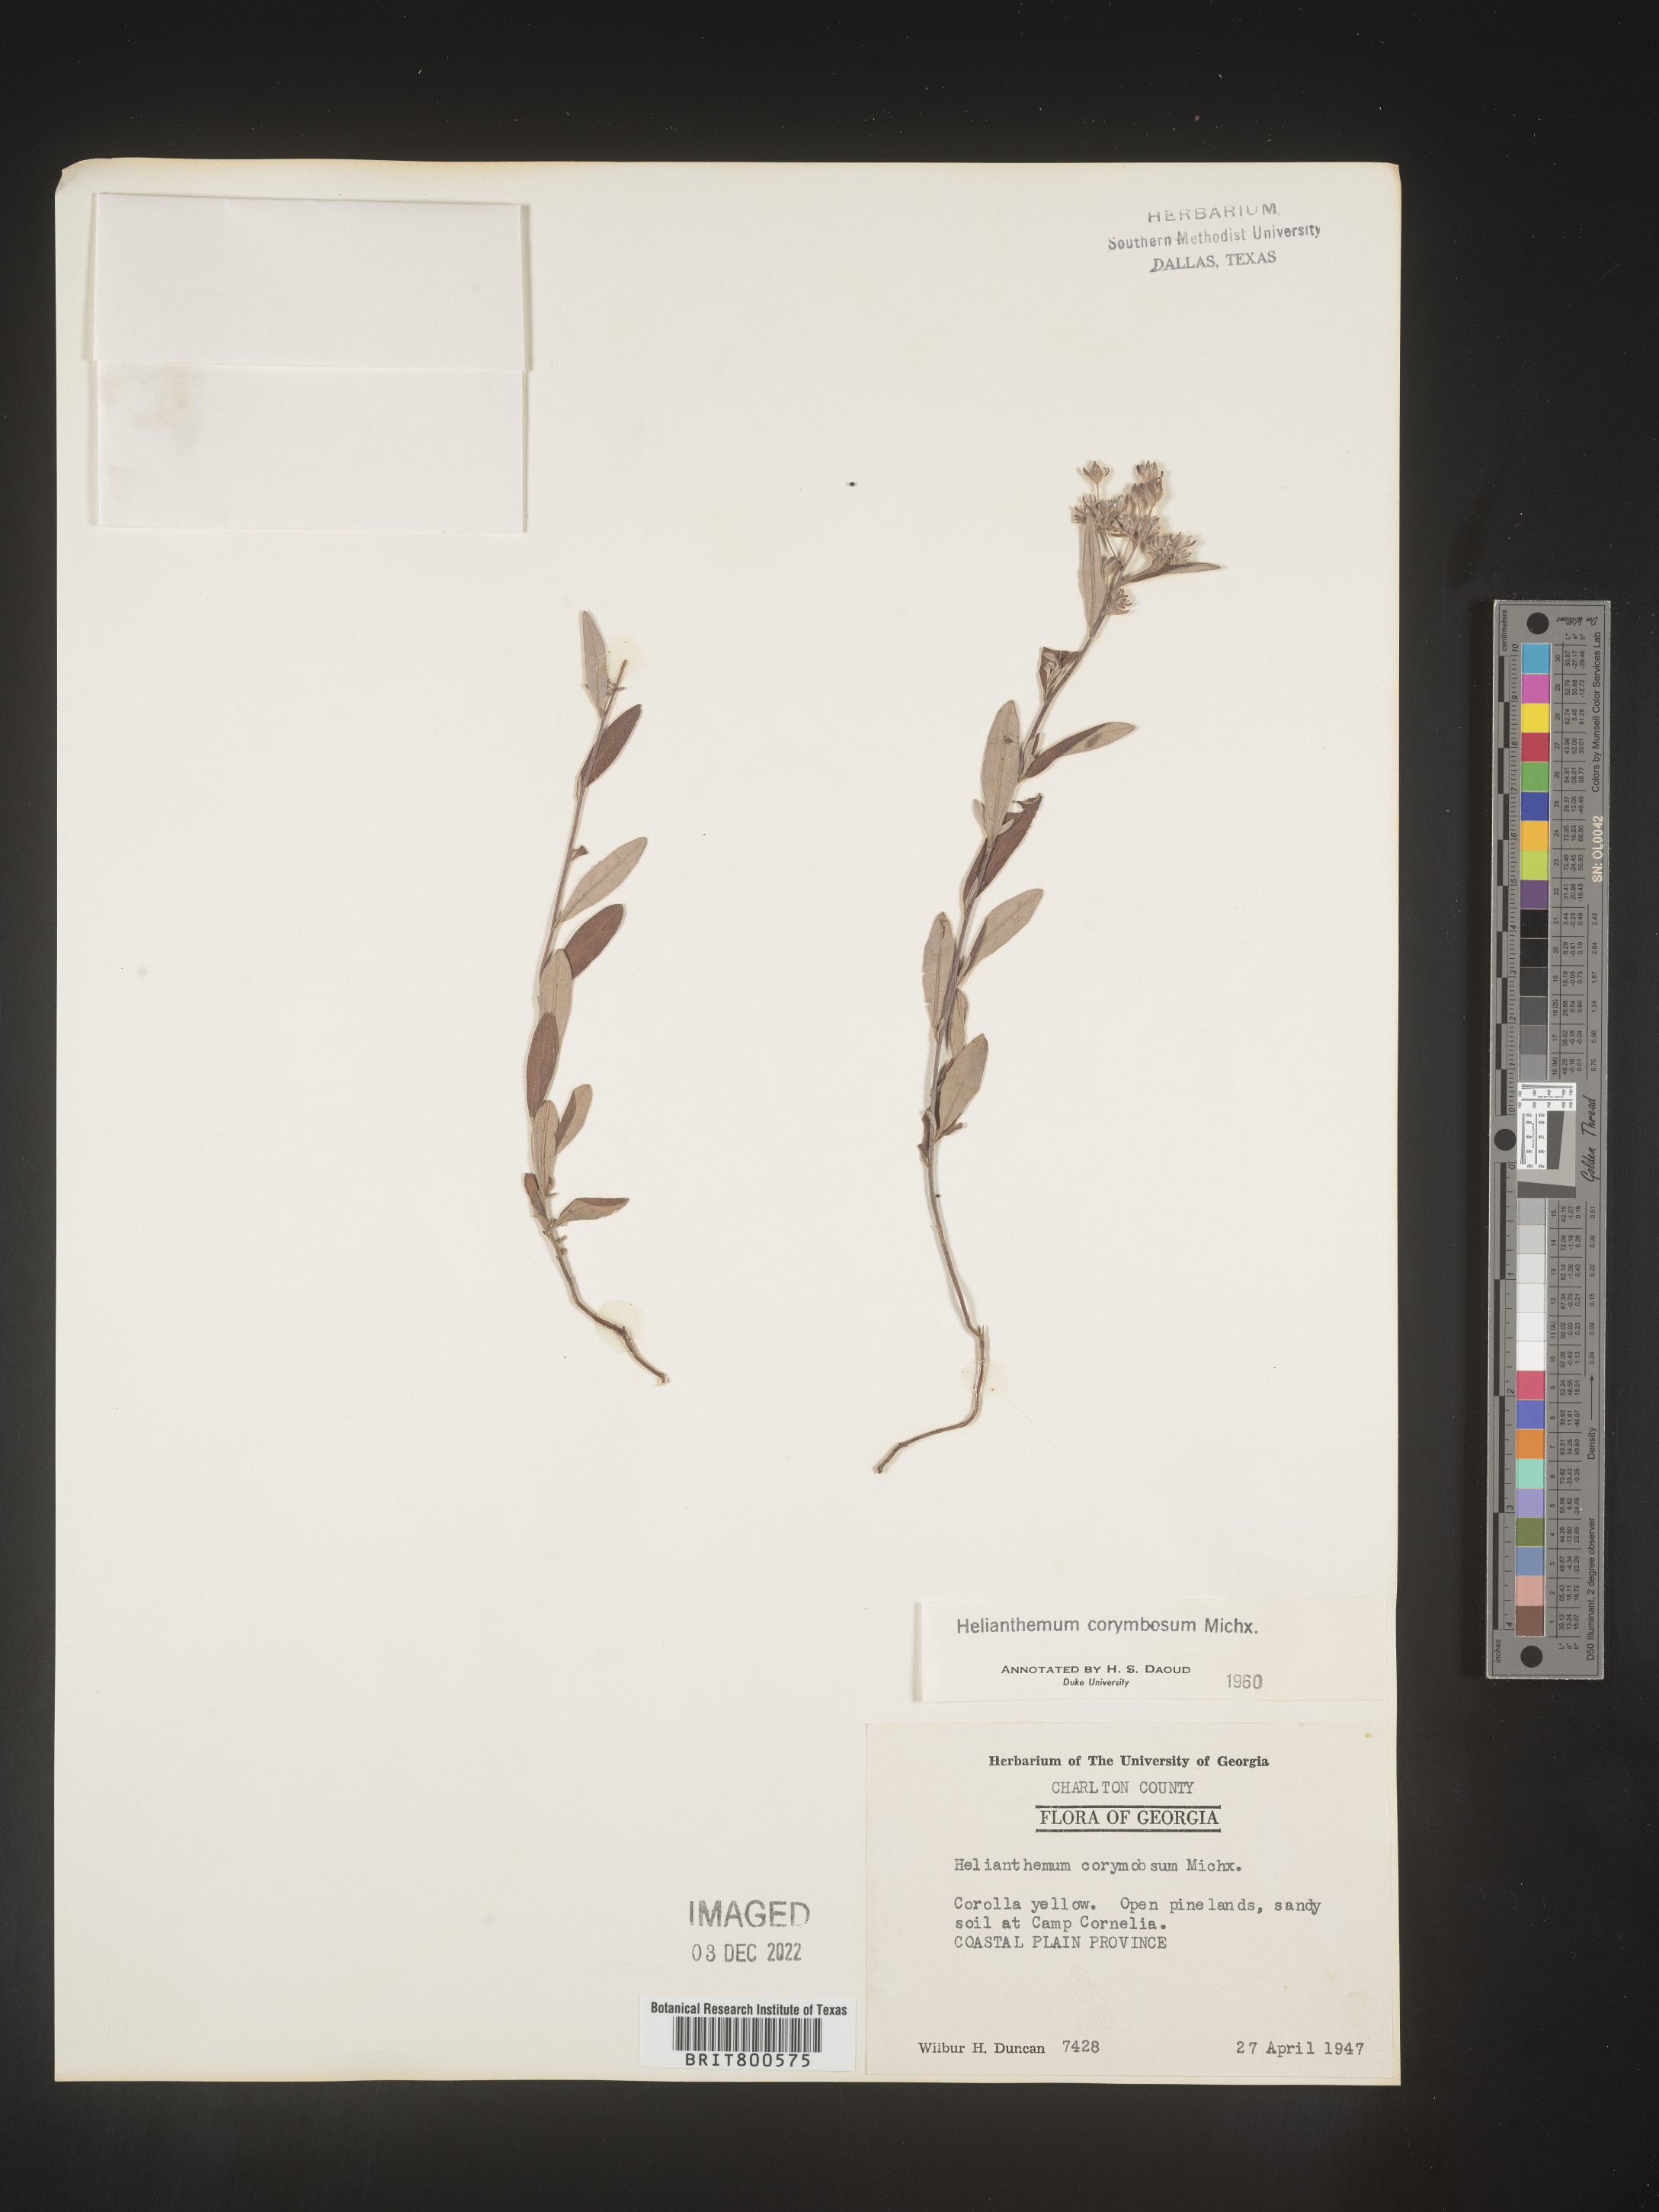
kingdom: Plantae
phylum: Tracheophyta
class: Magnoliopsida
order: Malvales
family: Cistaceae
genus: Crocanthemum
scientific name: Crocanthemum corymbosum
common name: Pinebarren sun-rose
